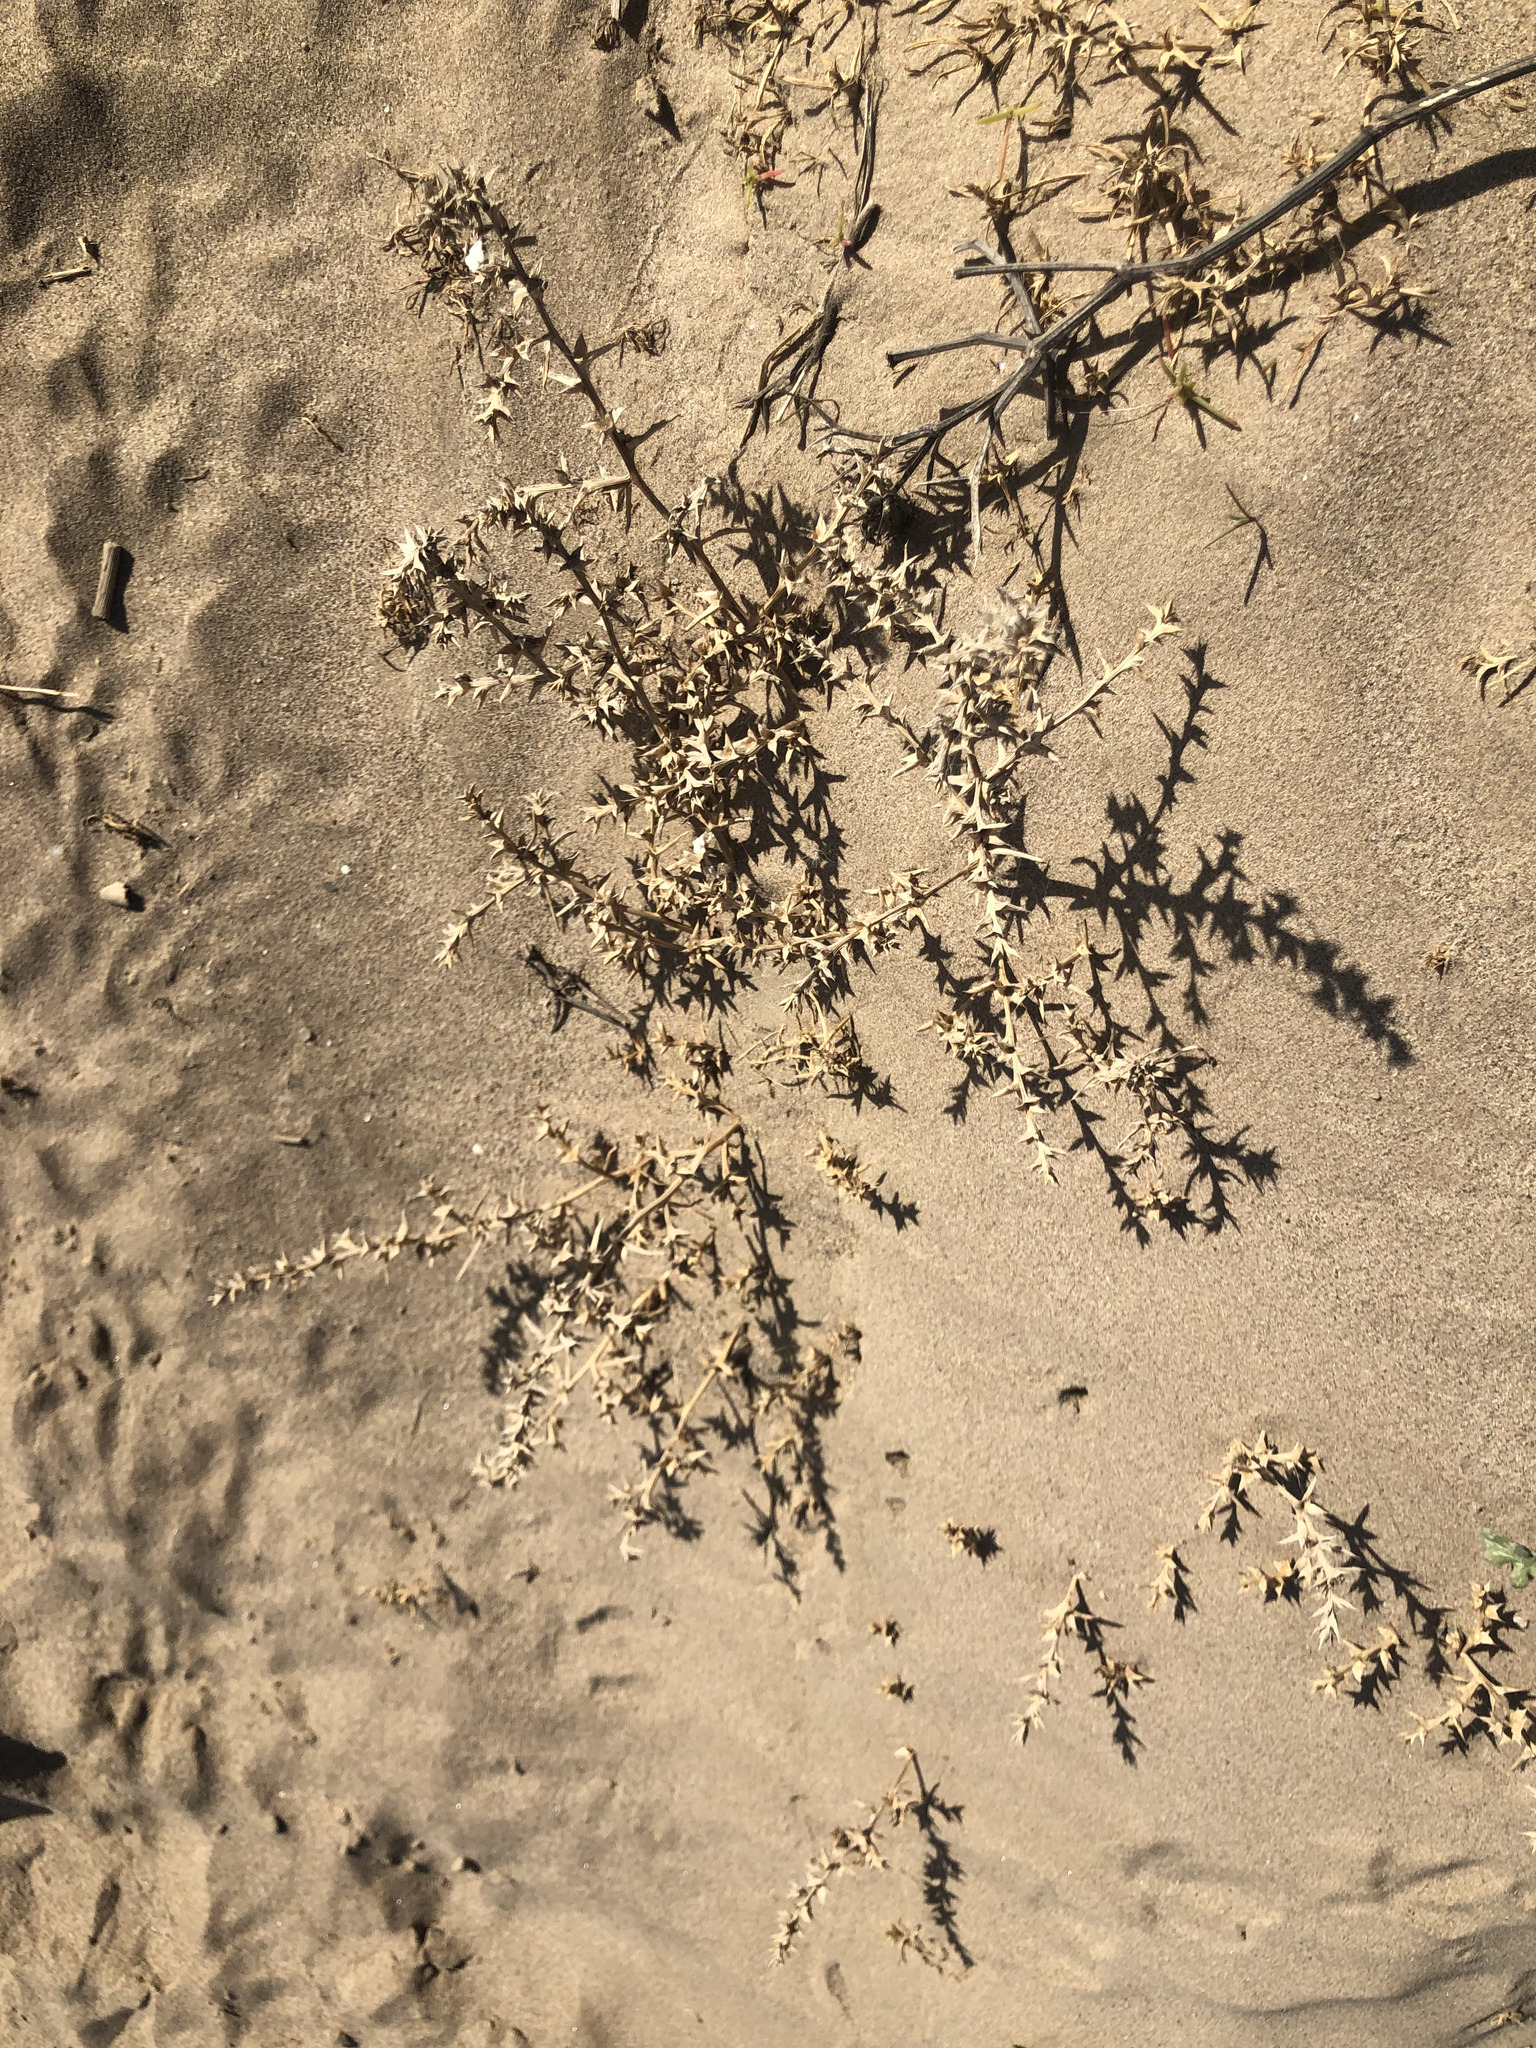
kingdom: Plantae
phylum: Tracheophyta
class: Magnoliopsida
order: Caryophyllales
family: Amaranthaceae
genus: Salsola
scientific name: Salsola kali
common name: Saltwort
